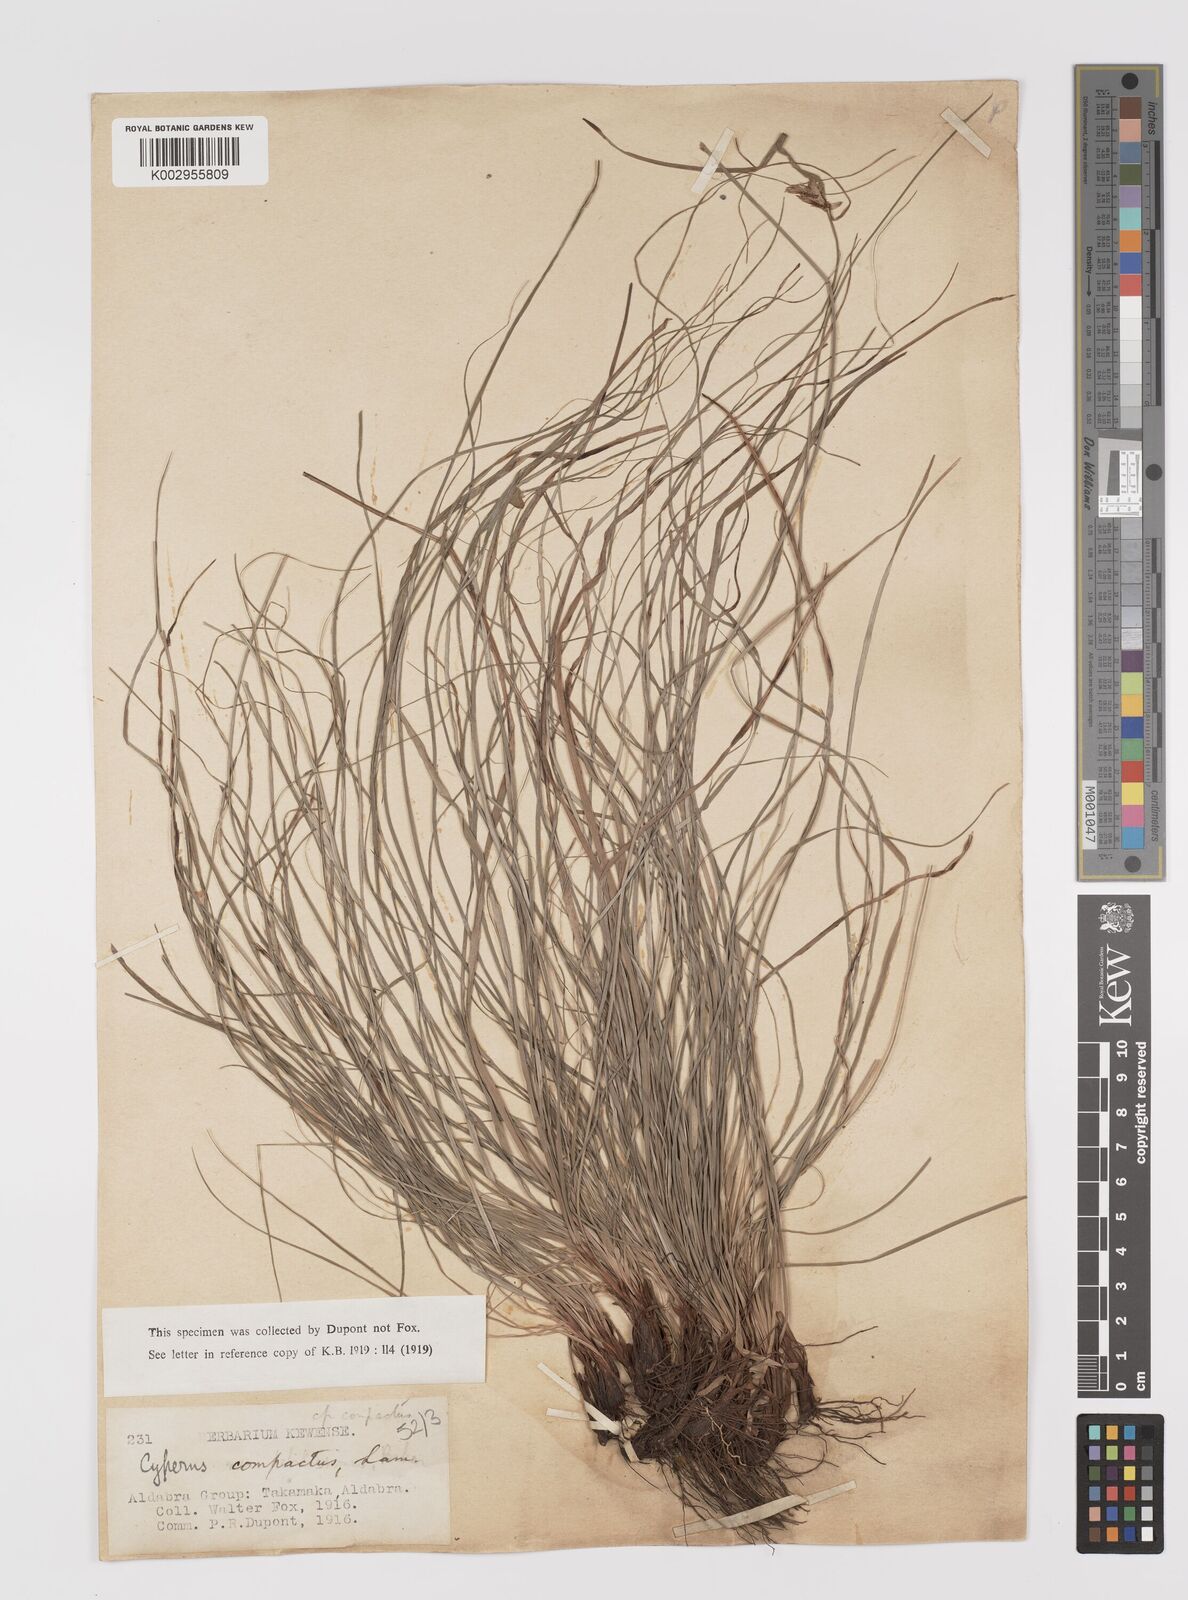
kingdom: Plantae
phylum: Tracheophyta
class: Liliopsida
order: Poales
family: Cyperaceae
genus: Cyperus
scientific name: Cyperus niveus
